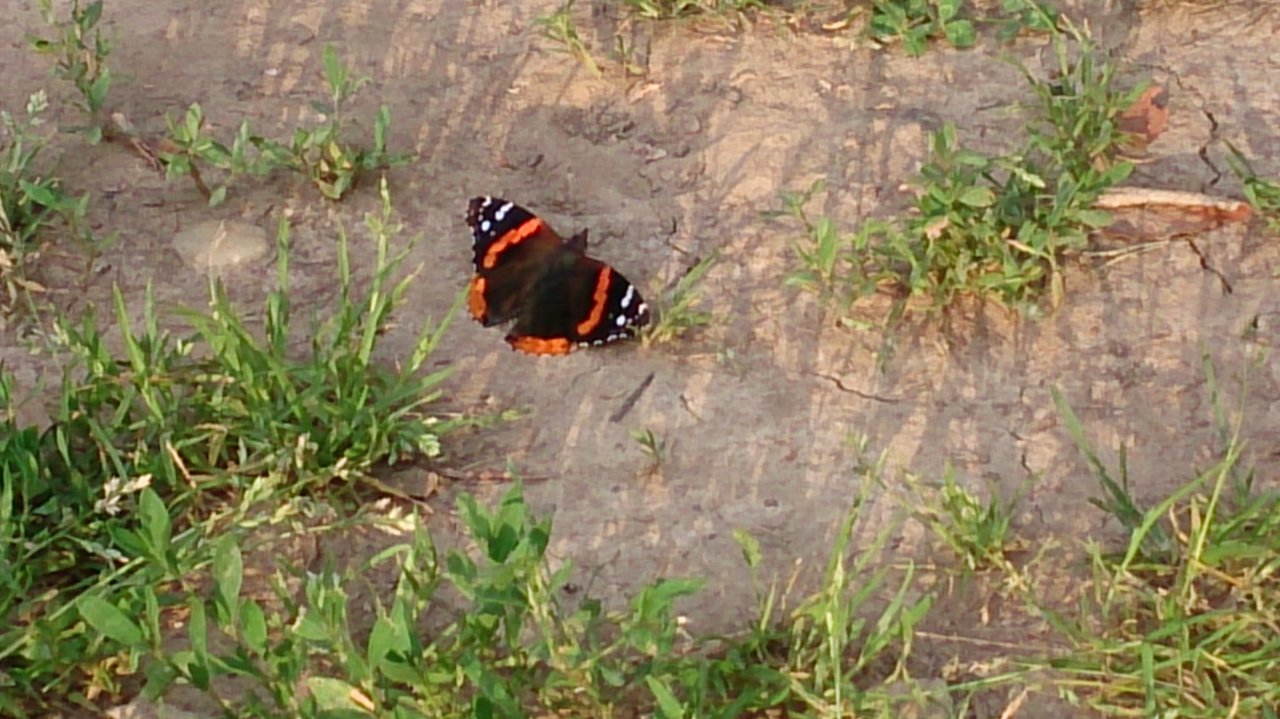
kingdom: Animalia
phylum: Arthropoda
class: Insecta
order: Lepidoptera
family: Nymphalidae
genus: Vanessa
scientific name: Vanessa atalanta
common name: Red Admiral
